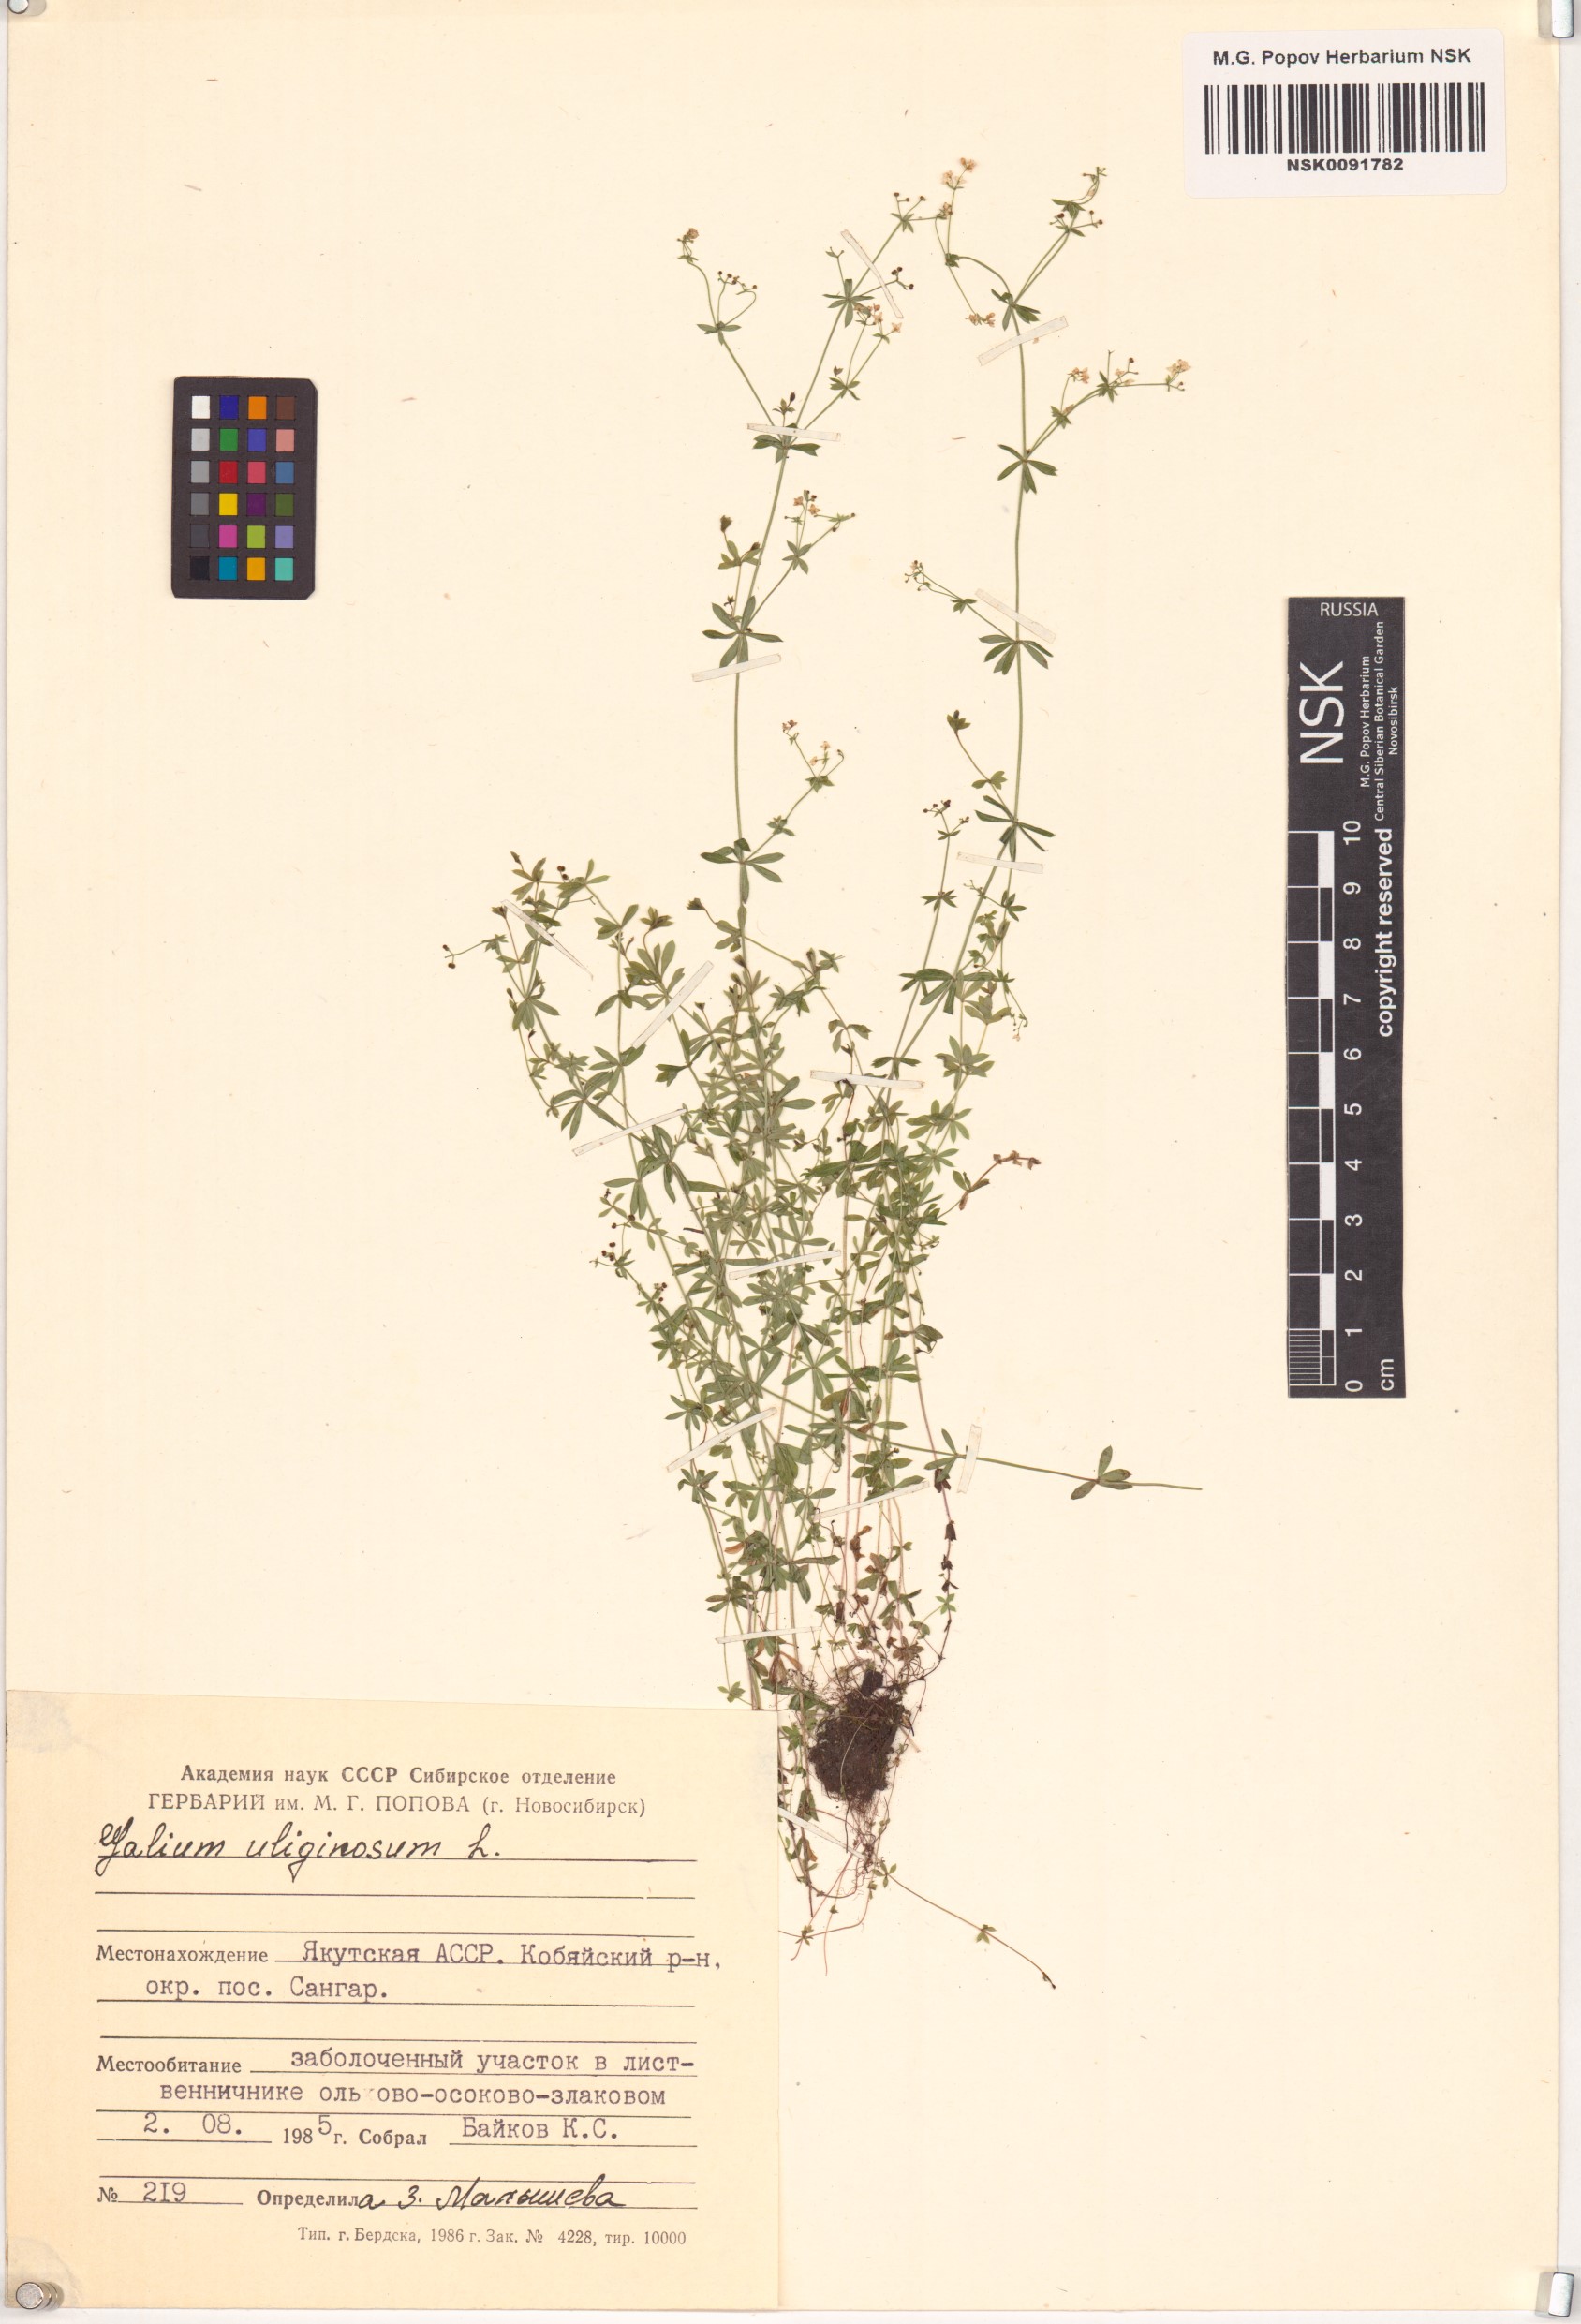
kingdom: Plantae
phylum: Tracheophyta
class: Magnoliopsida
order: Gentianales
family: Rubiaceae
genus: Galium
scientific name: Galium uliginosum
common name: Fen bedstraw
